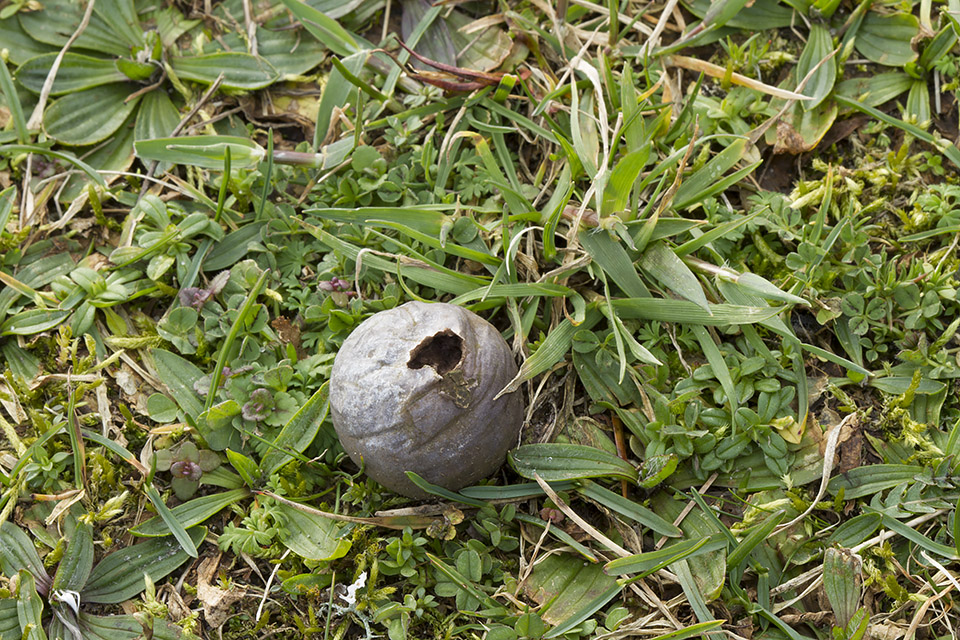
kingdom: Fungi
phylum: Basidiomycota
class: Agaricomycetes
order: Agaricales
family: Lycoperdaceae
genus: Bovista
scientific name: Bovista nigrescens
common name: sortagtig bovist
